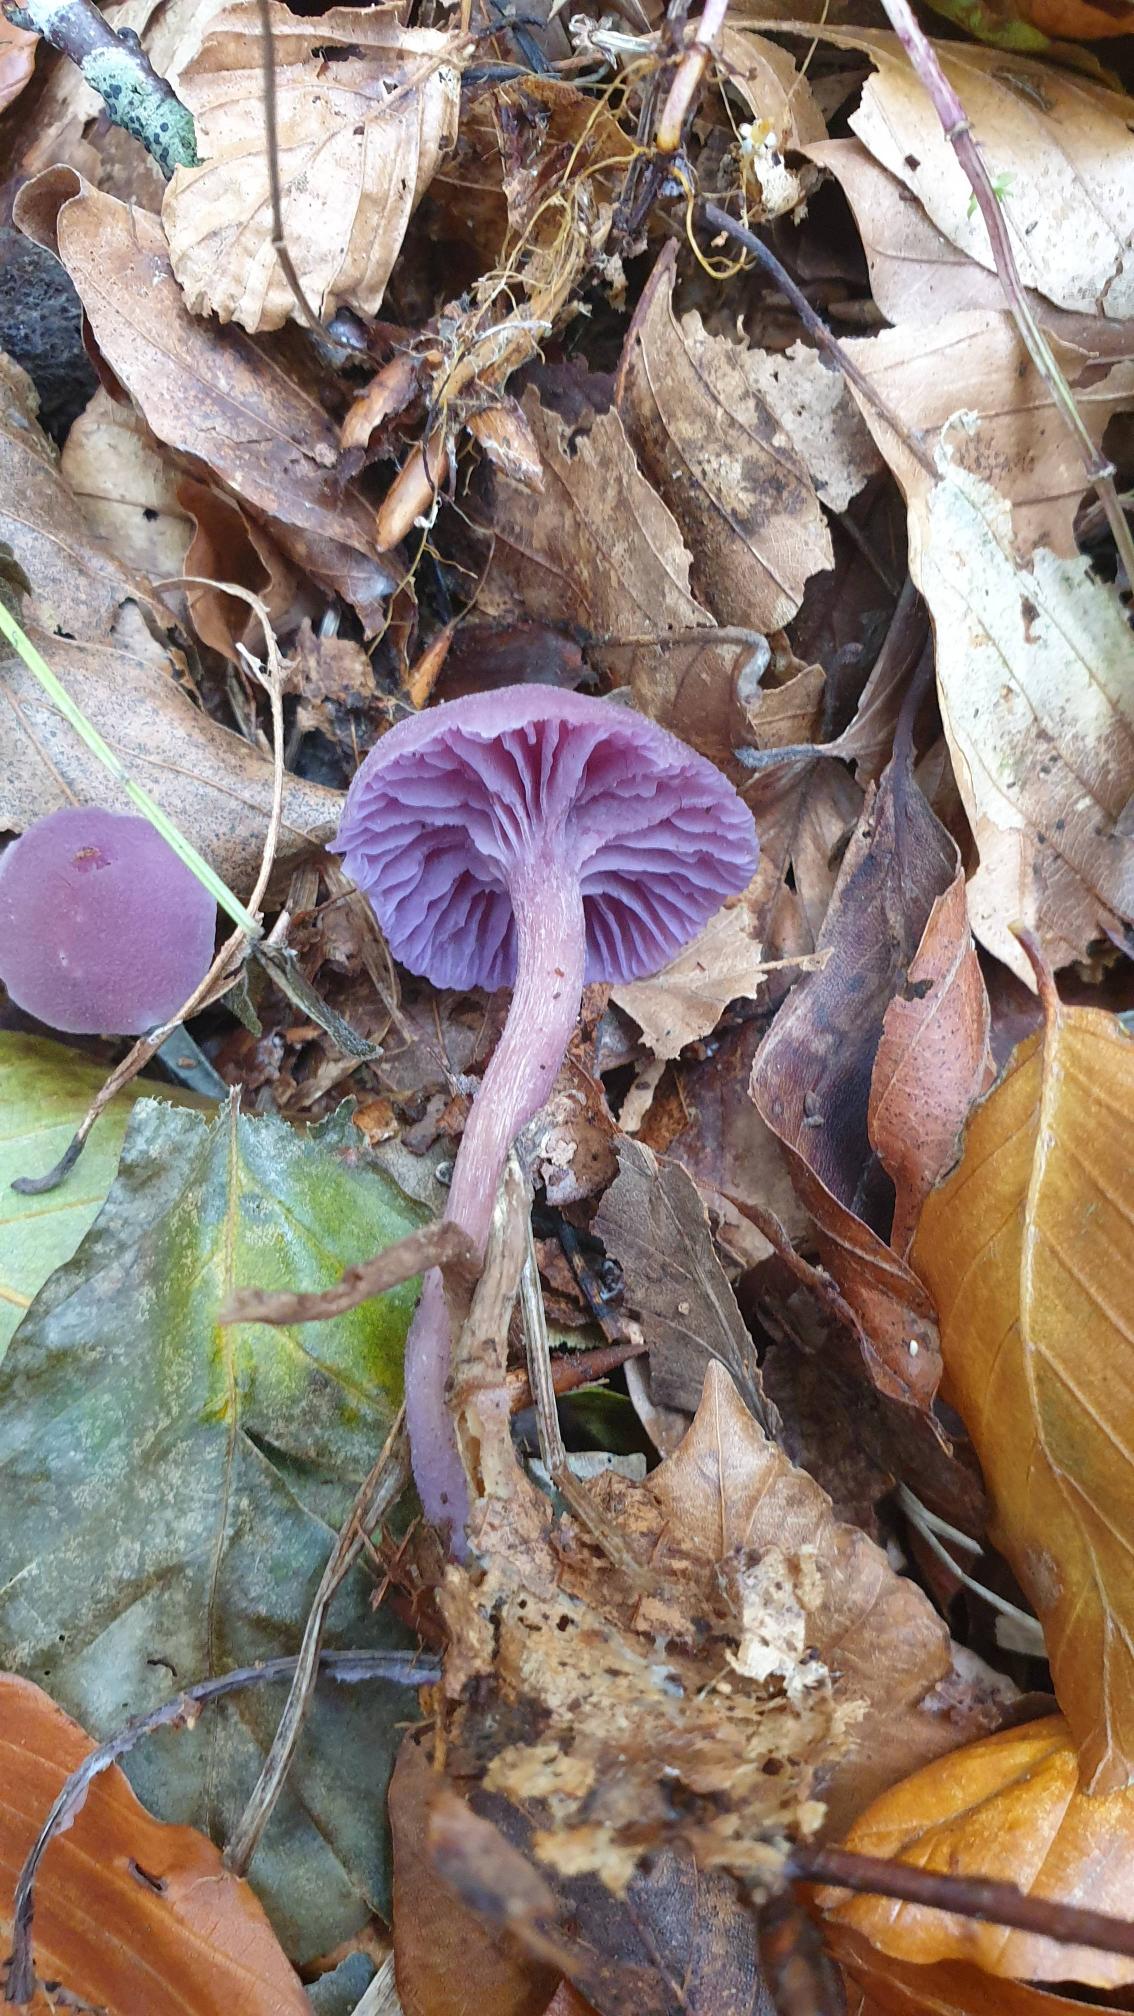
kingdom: Fungi
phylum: Basidiomycota
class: Agaricomycetes
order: Agaricales
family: Hydnangiaceae
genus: Laccaria
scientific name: Laccaria amethystina
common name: Violet ametysthat
